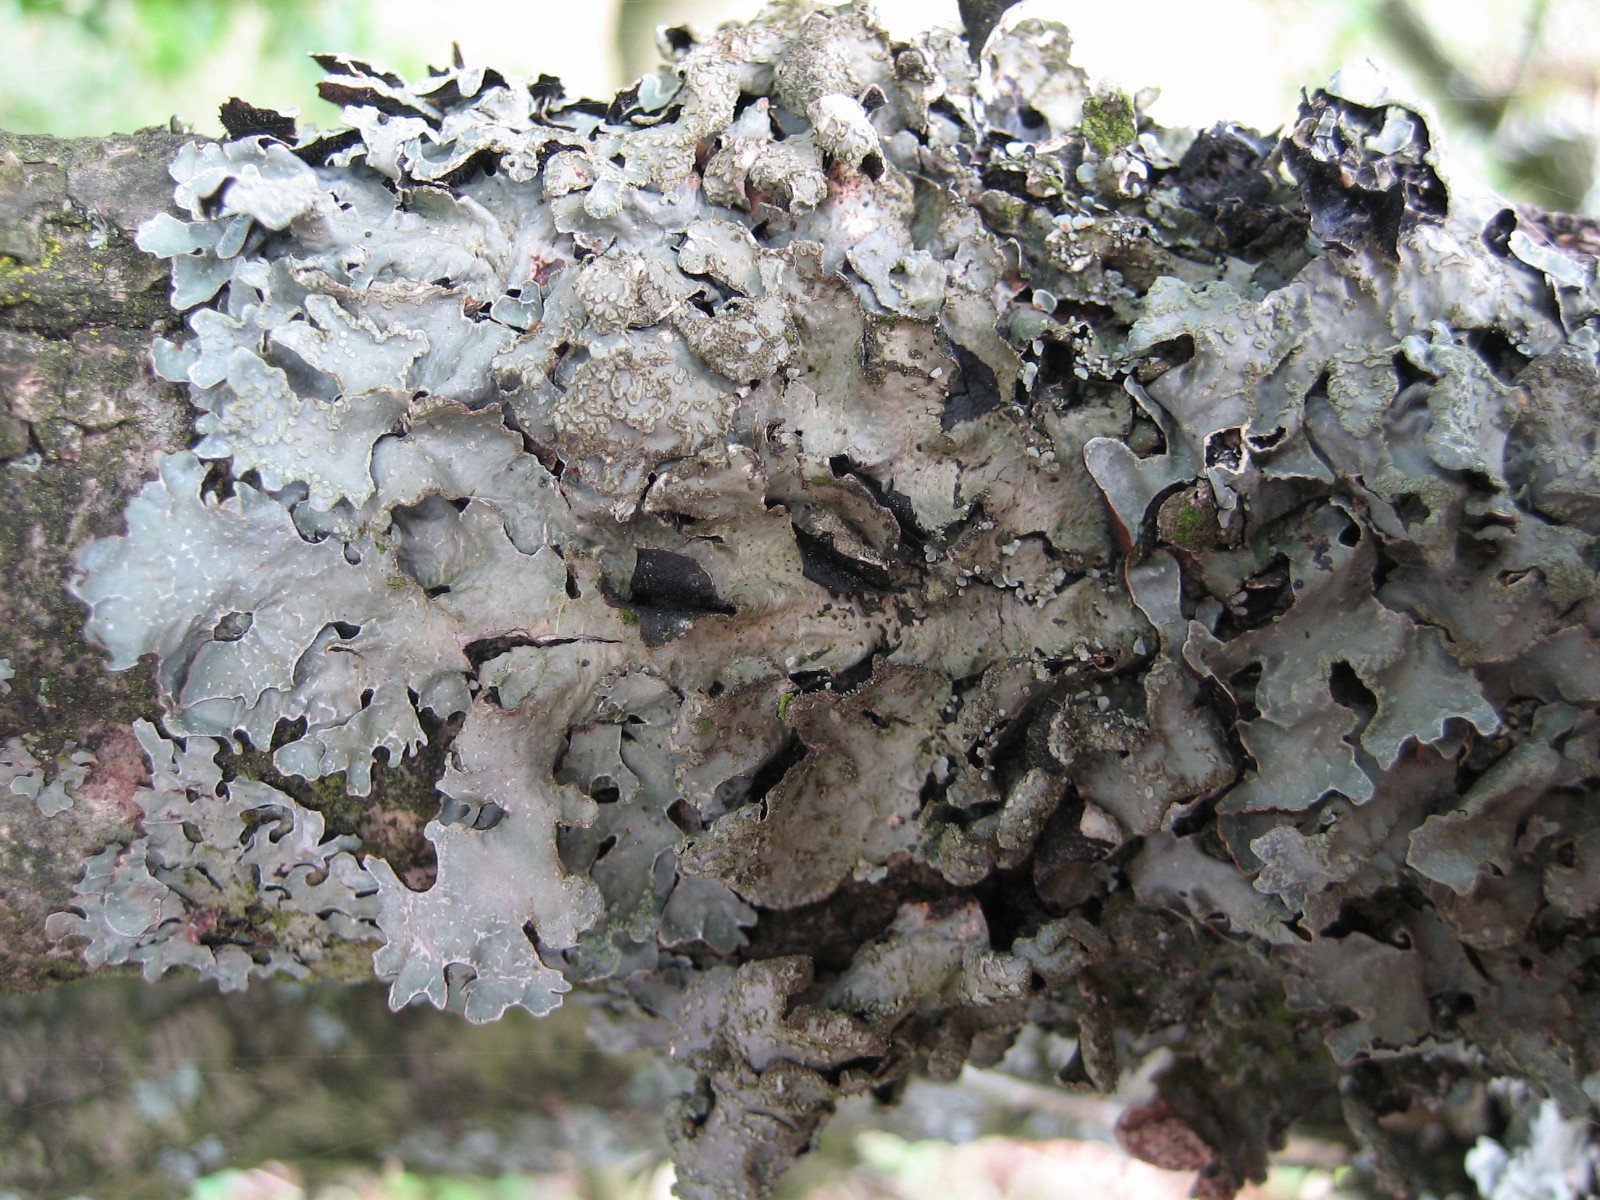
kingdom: Fungi
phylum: Ascomycota
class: Lecanoromycetes
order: Lecanorales
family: Parmeliaceae
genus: Parmelia
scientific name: Parmelia sulcata
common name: rynket skållav
